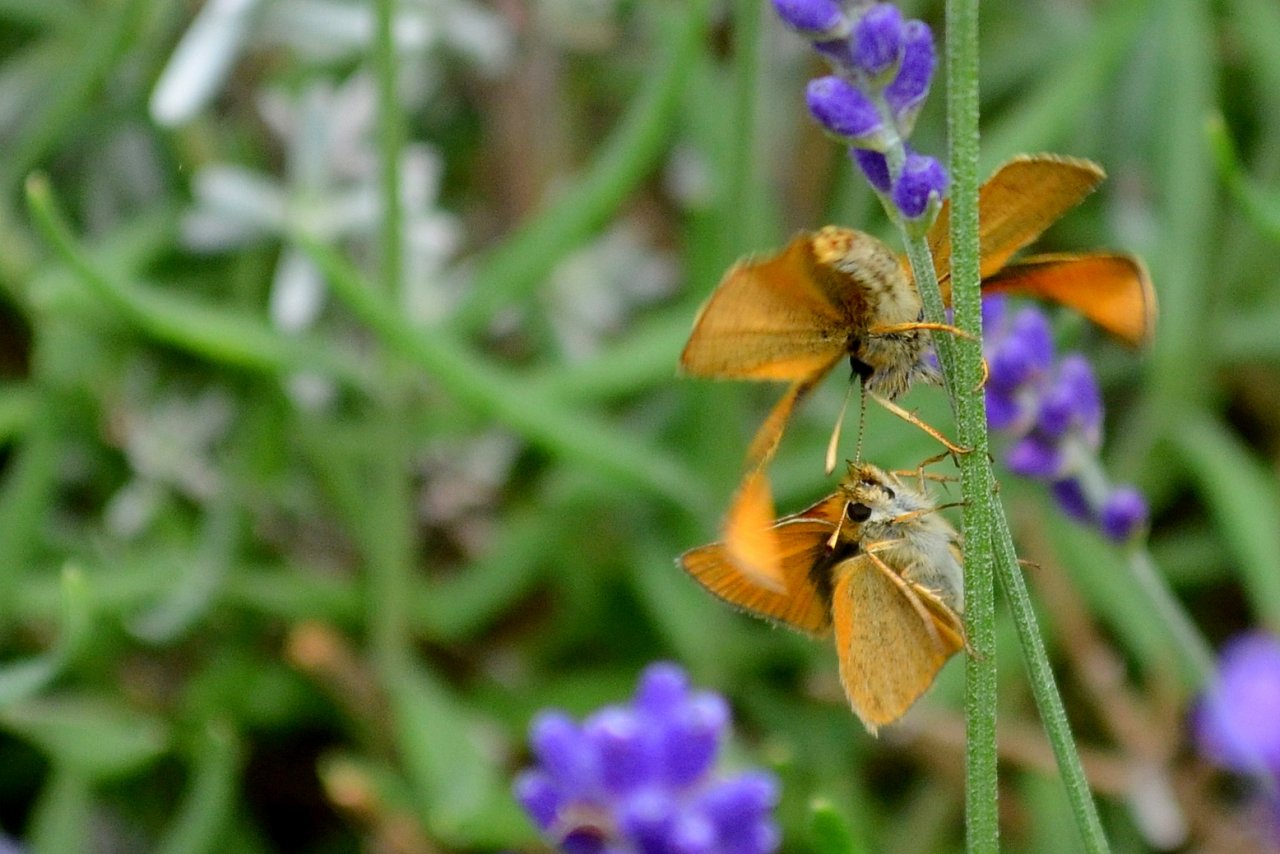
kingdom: Animalia
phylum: Arthropoda
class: Insecta
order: Lepidoptera
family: Hesperiidae
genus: Thymelicus
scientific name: Thymelicus lineola
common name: European Skipper
